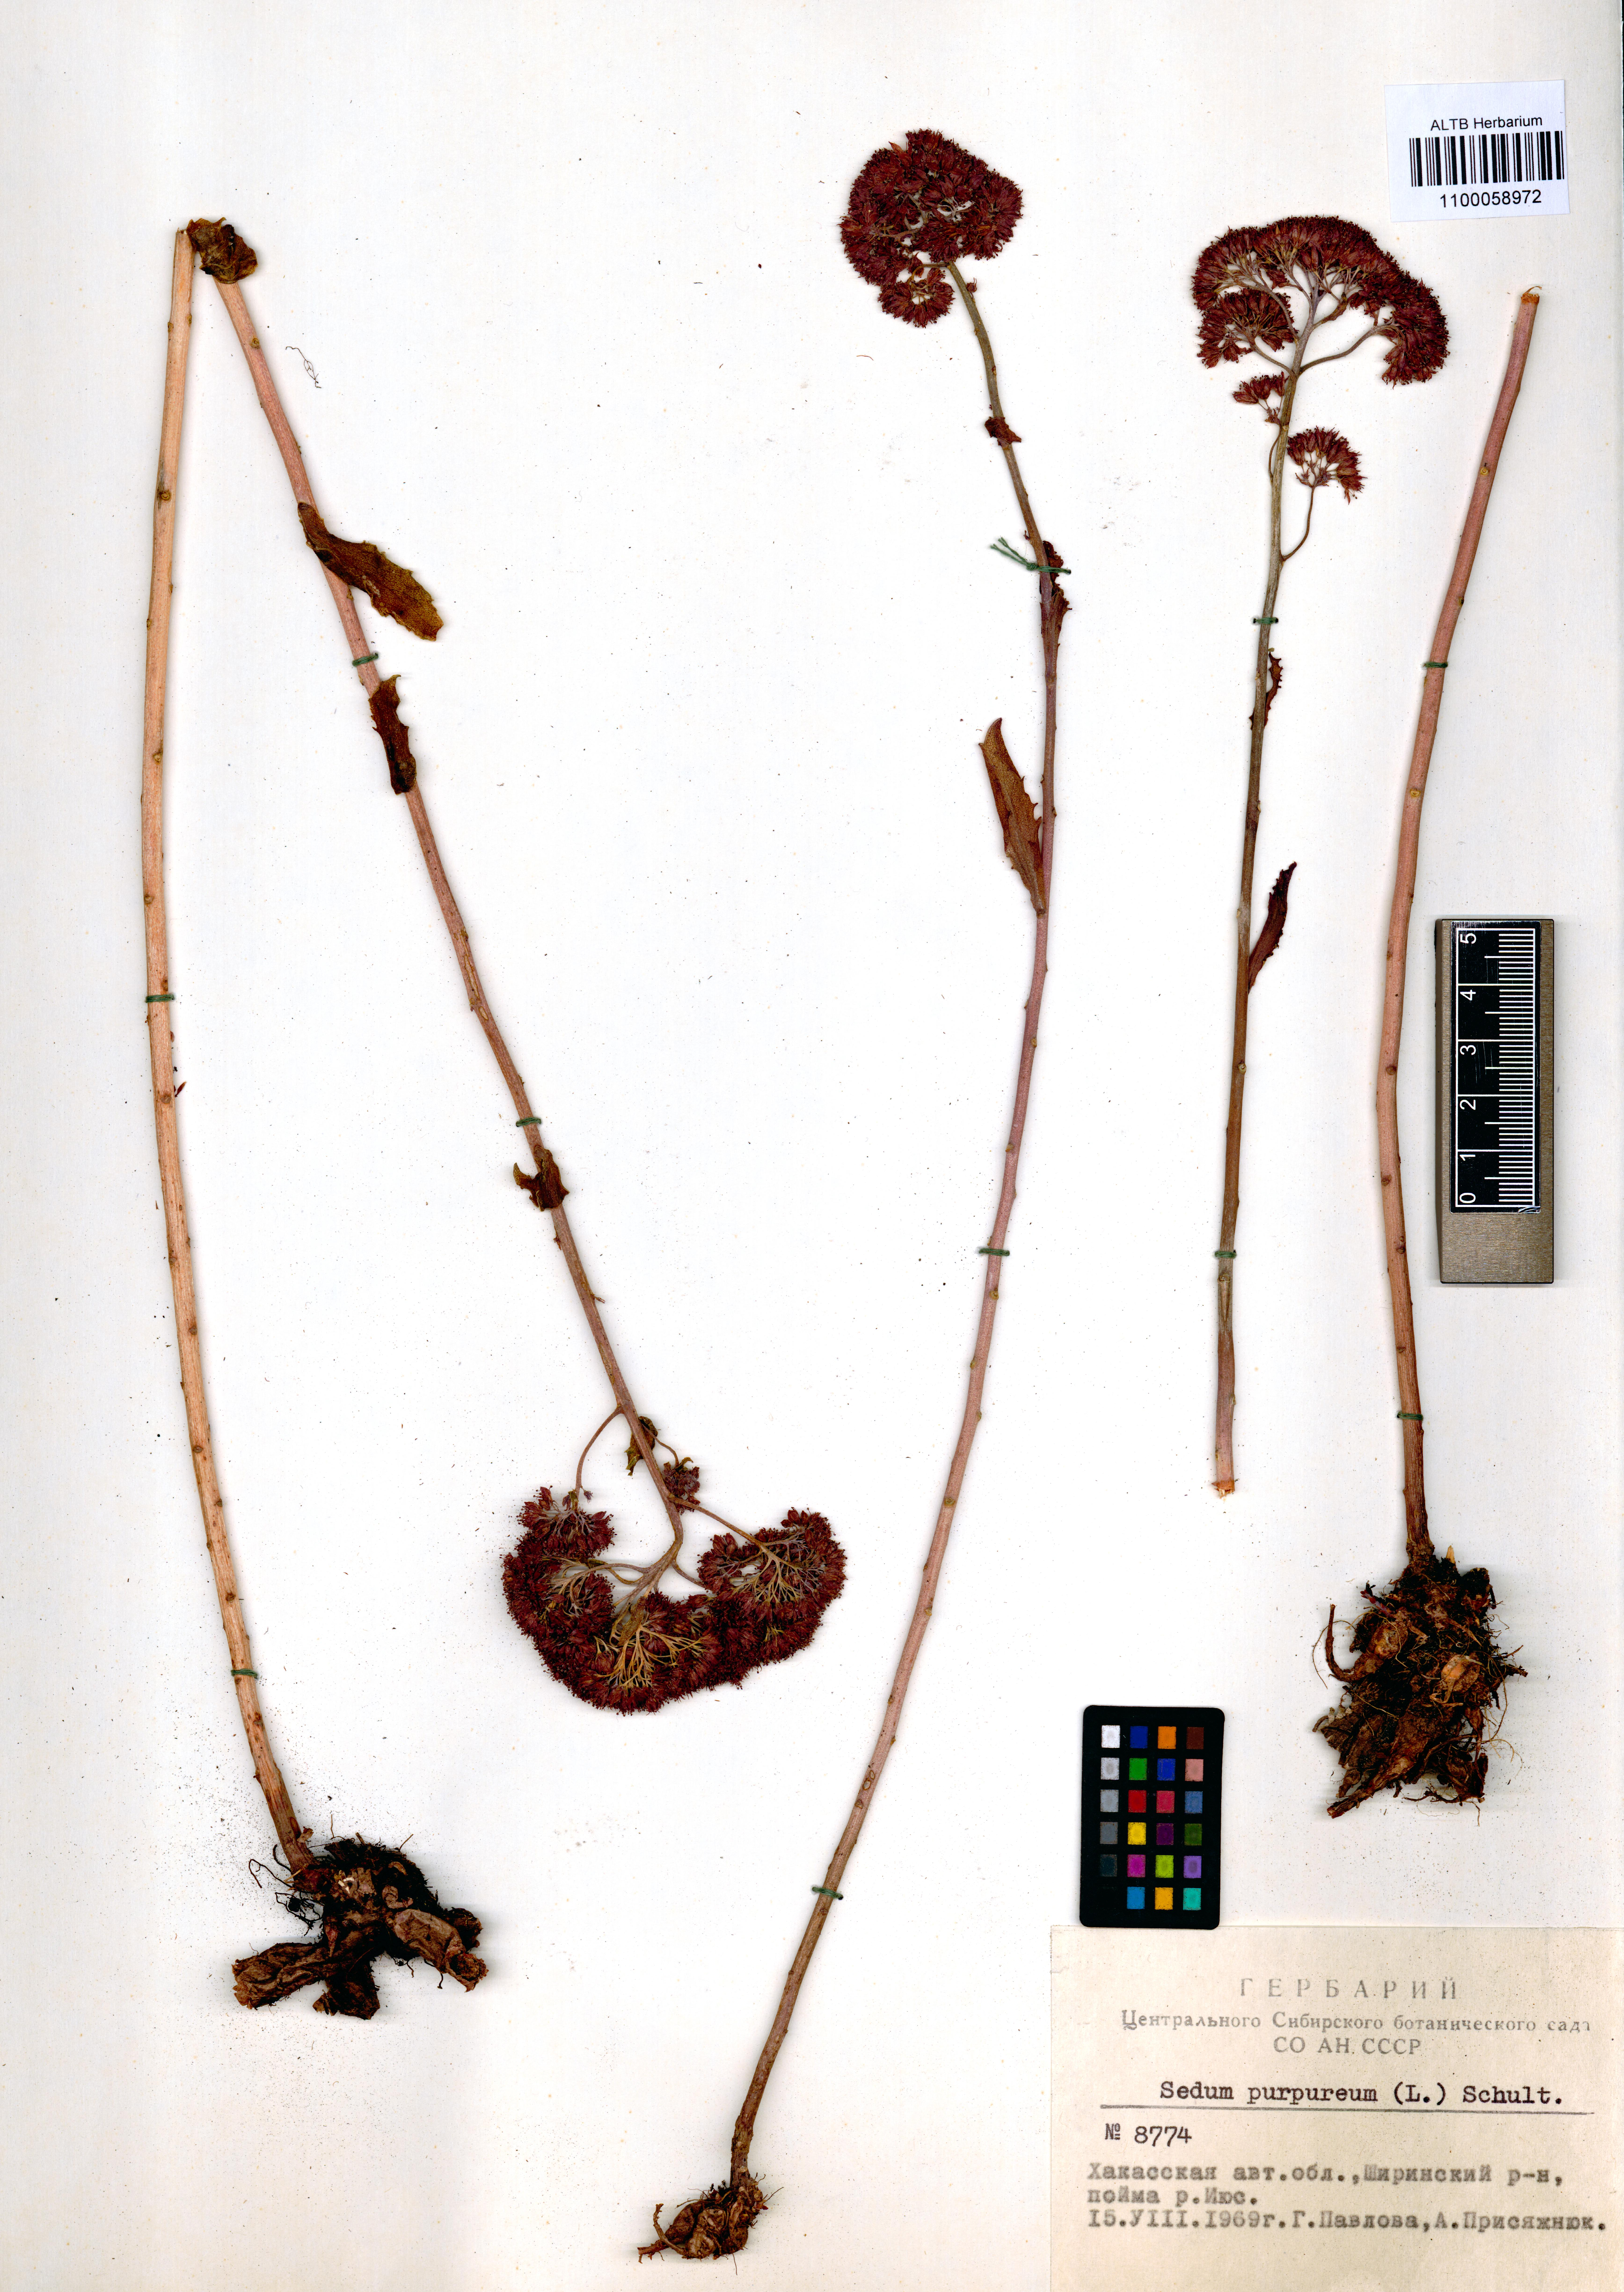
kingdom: Plantae
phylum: Tracheophyta
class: Magnoliopsida
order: Saxifragales
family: Crassulaceae
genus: Hylotelephium
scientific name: Hylotelephium telephium
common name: Live-forever
